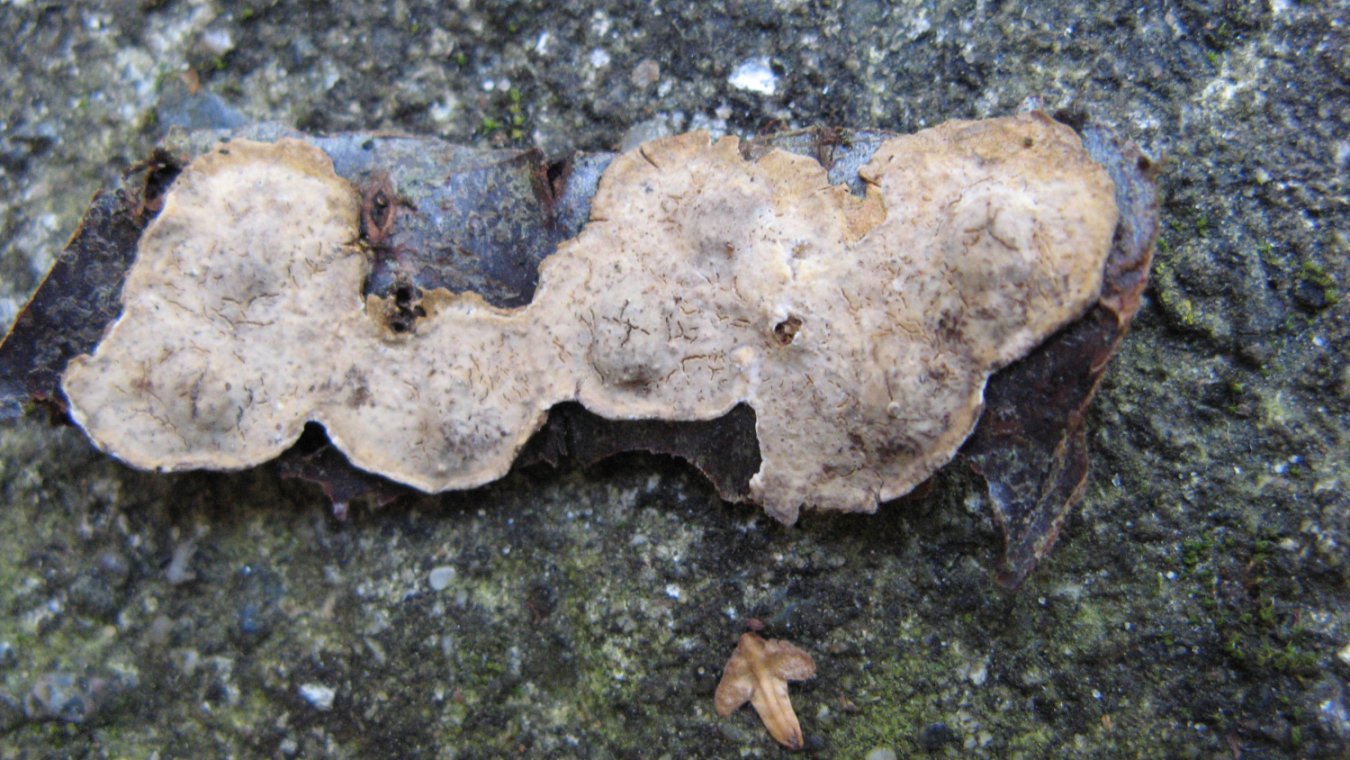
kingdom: Fungi
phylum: Basidiomycota
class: Agaricomycetes
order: Russulales
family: Stereaceae
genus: Stereum
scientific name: Stereum rugosum
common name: rynket lædersvamp
